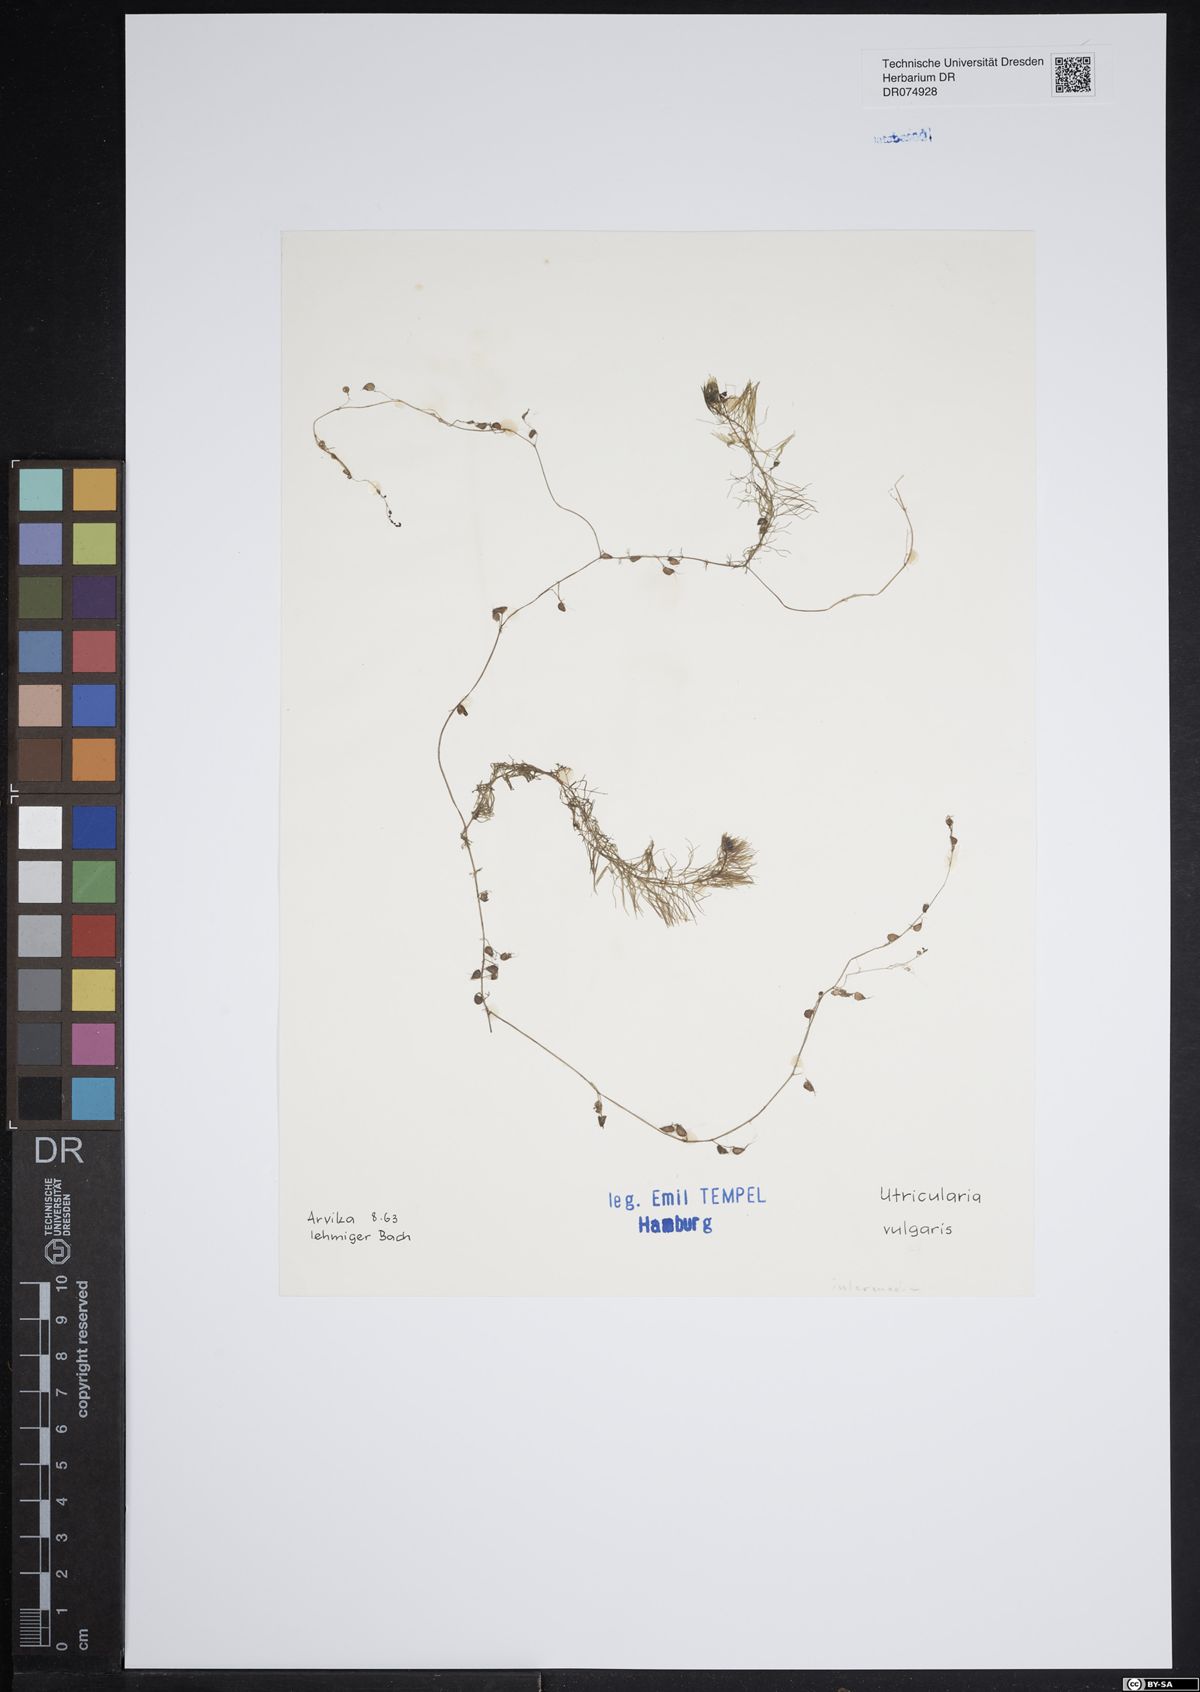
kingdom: Plantae
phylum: Tracheophyta
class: Magnoliopsida
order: Lamiales
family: Lentibulariaceae
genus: Utricularia
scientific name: Utricularia vulgaris
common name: Greater bladderwort
